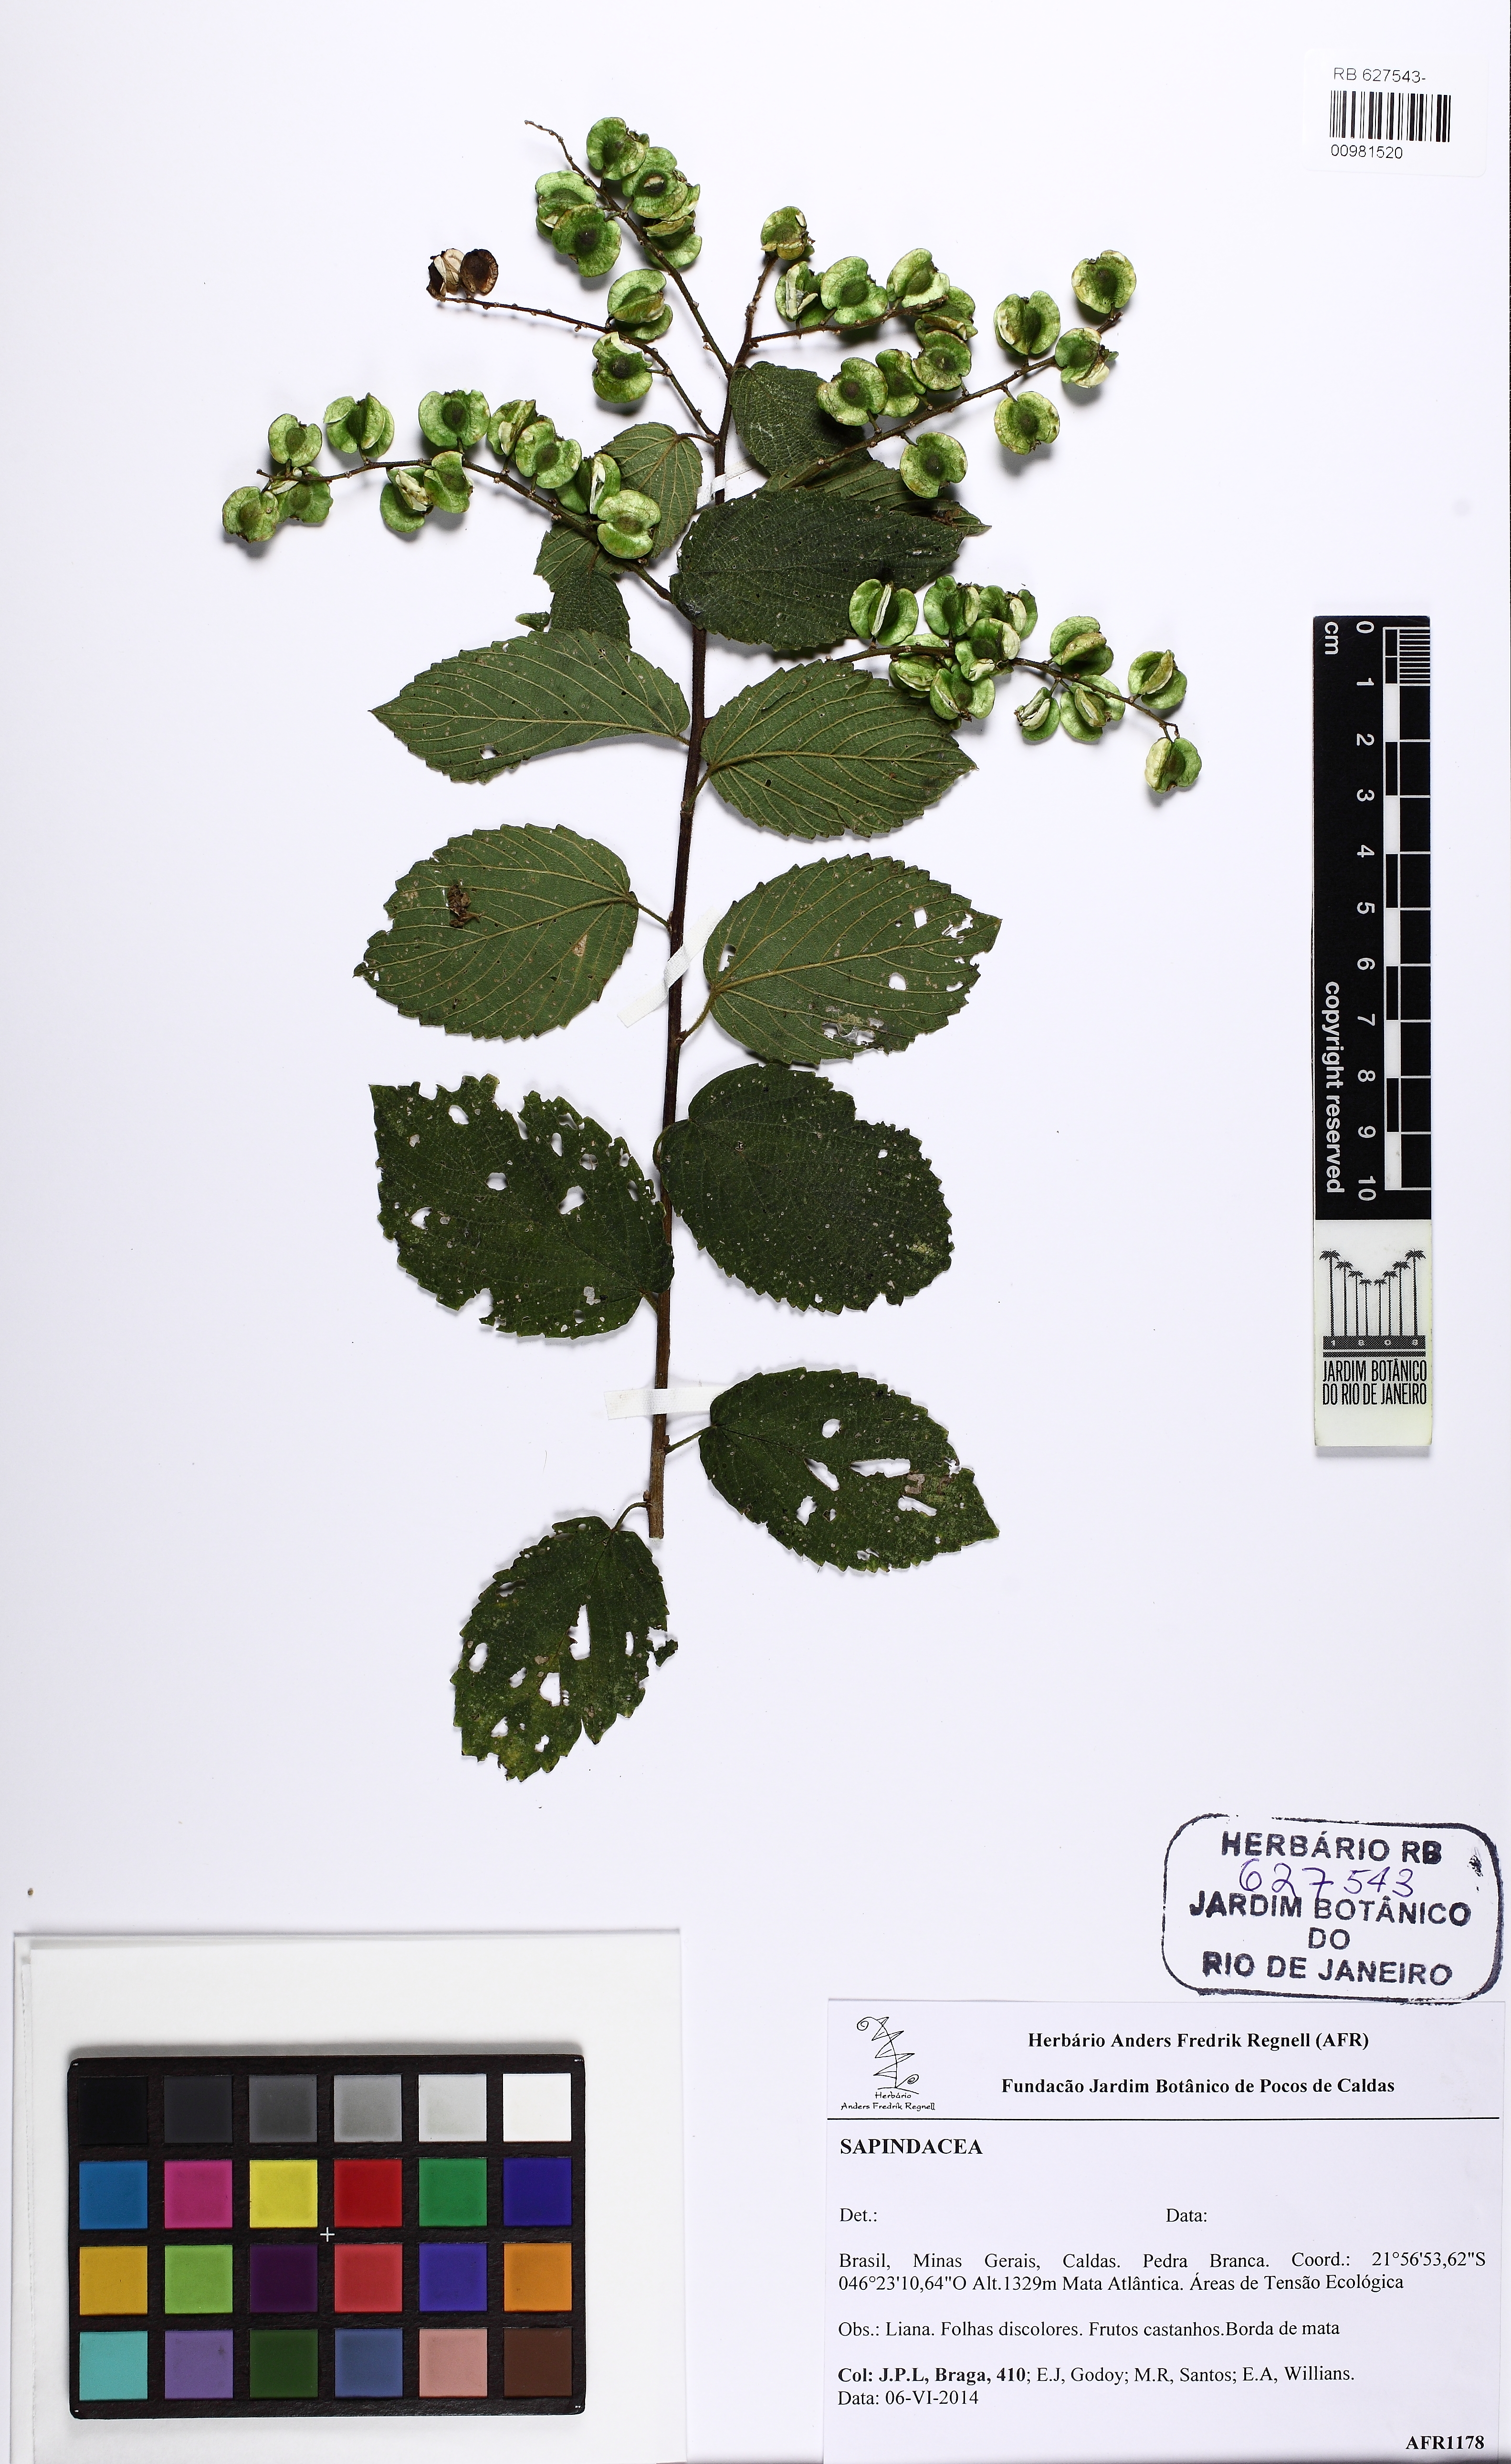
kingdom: Plantae
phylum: Tracheophyta
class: Magnoliopsida
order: Rosales
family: Rhamnaceae
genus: Gouania
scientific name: Gouania
